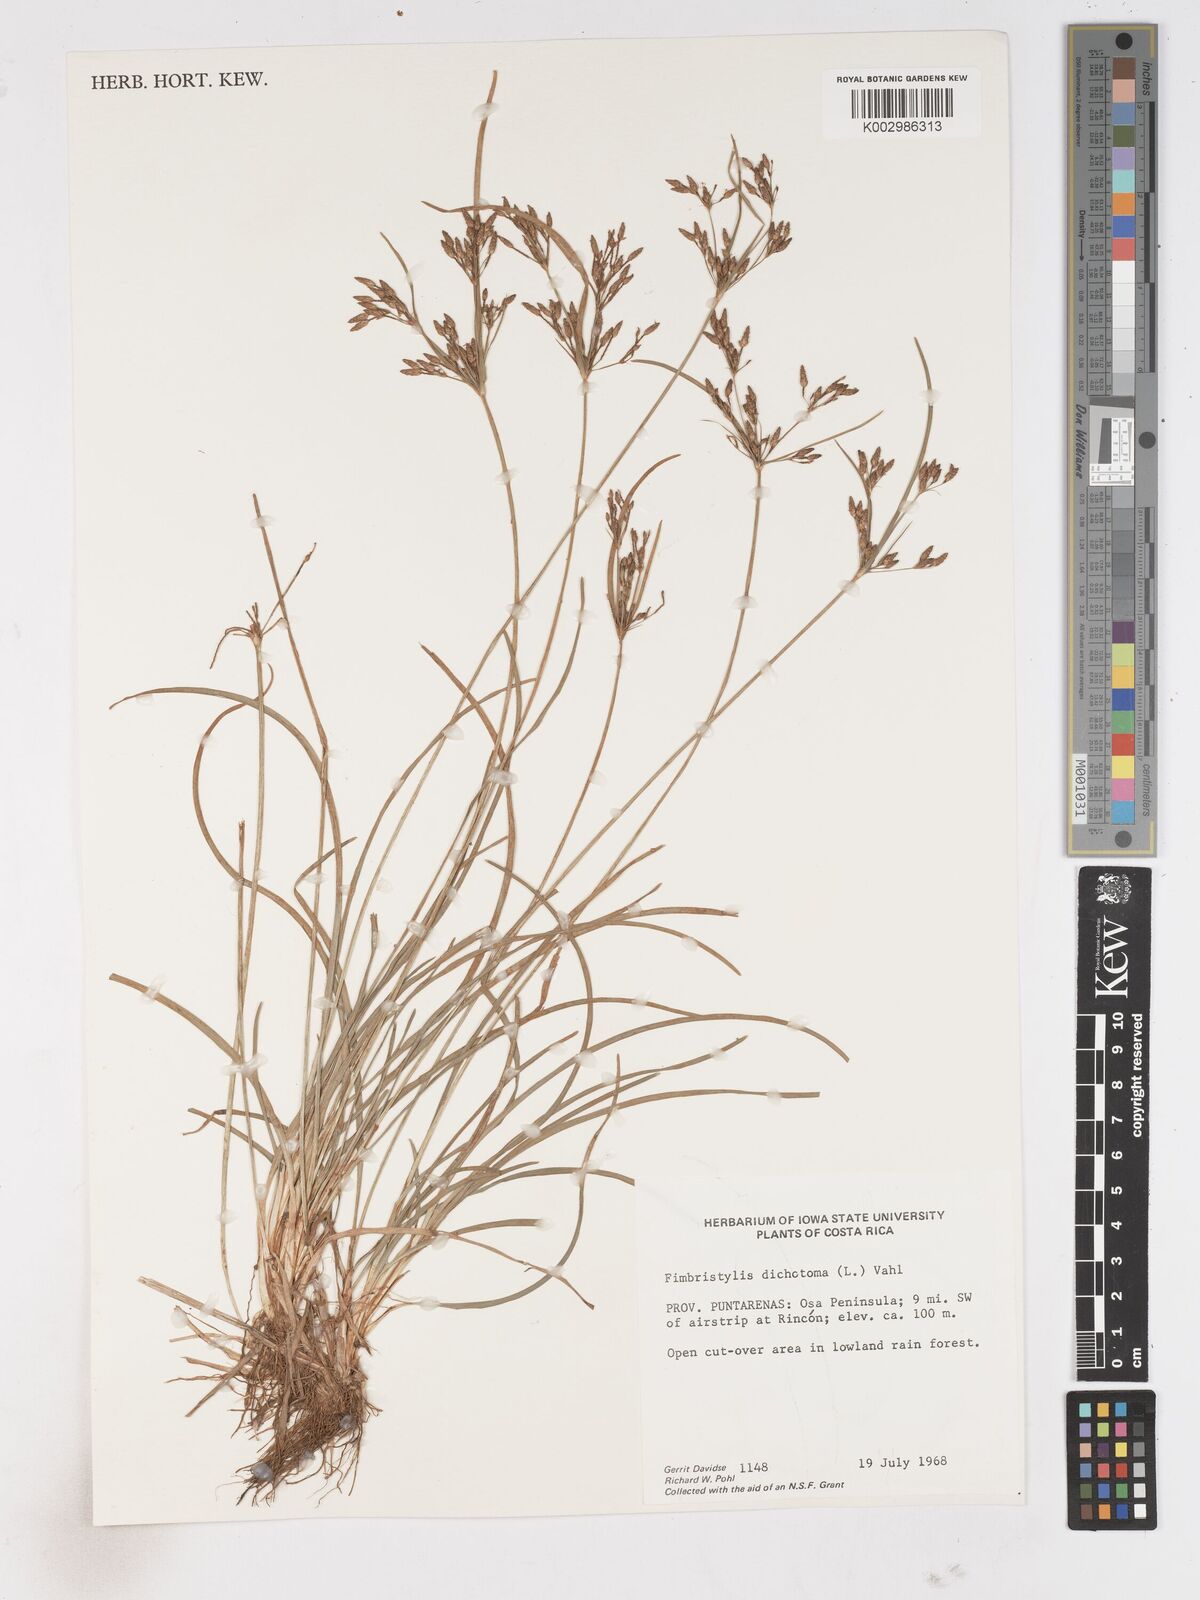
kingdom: Plantae
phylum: Tracheophyta
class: Liliopsida
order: Poales
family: Cyperaceae
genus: Fimbristylis
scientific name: Fimbristylis dichotoma
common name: Forked fimbry
